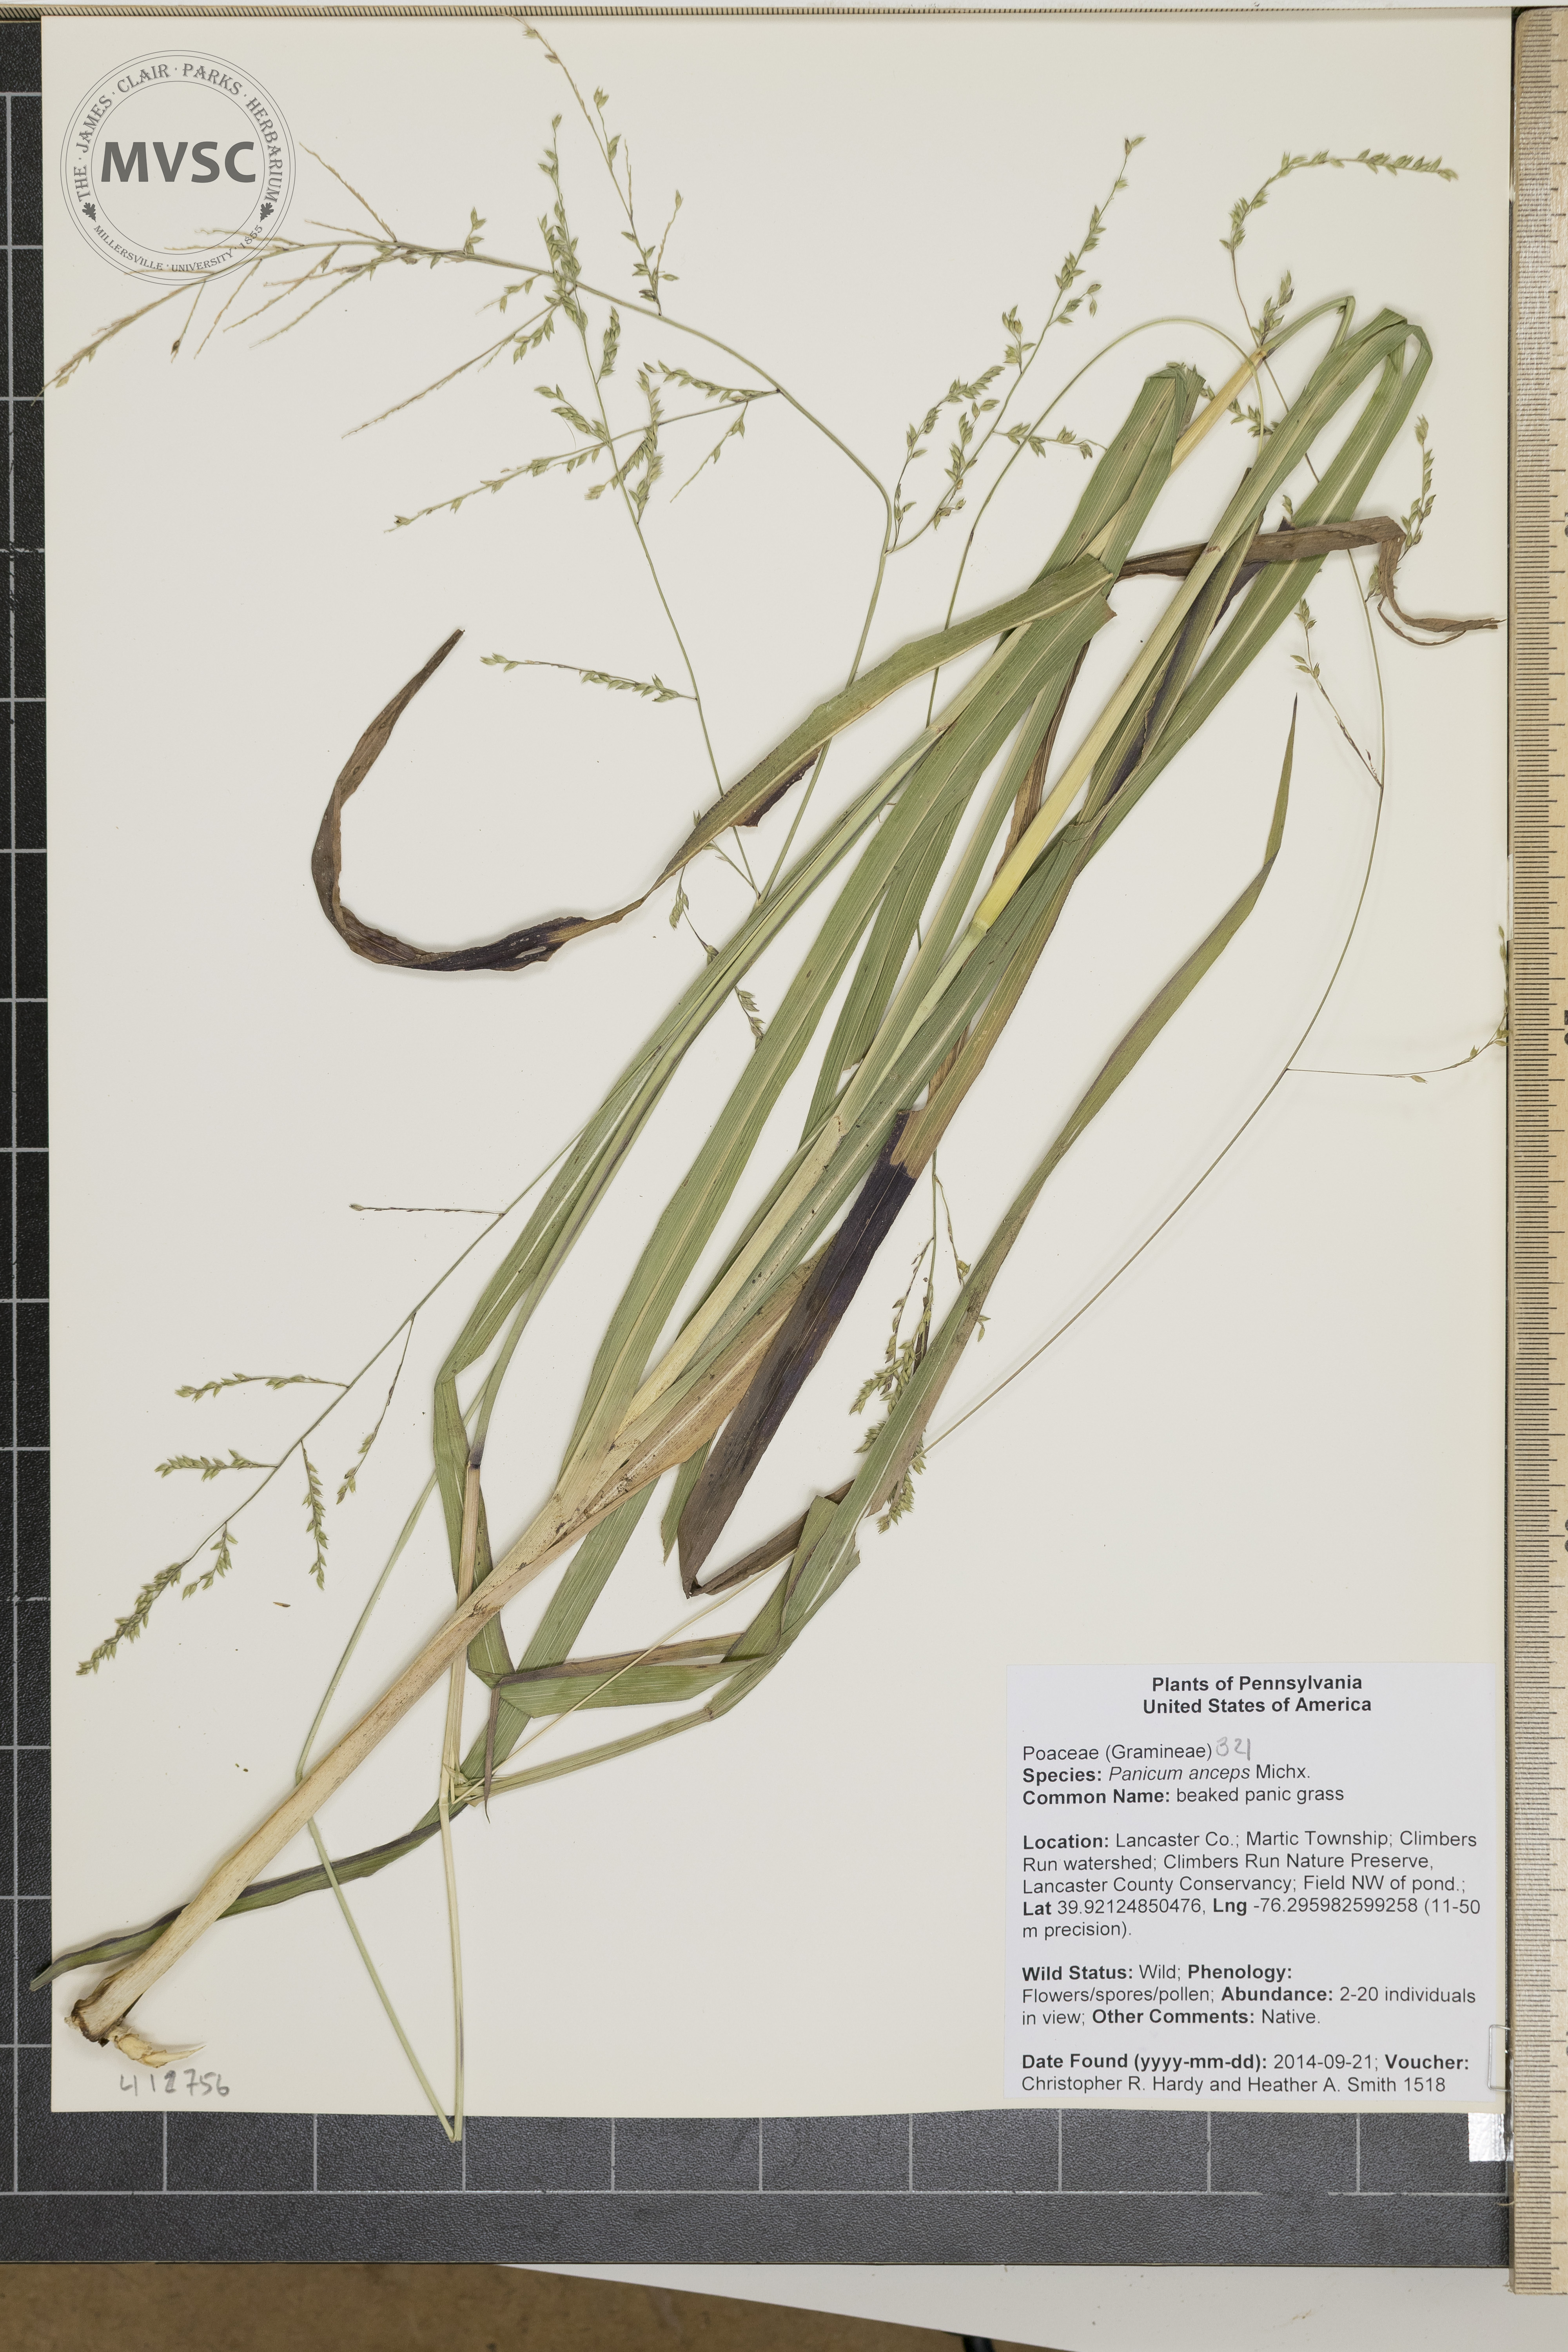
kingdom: Plantae
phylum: Tracheophyta
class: Liliopsida
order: Poales
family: Poaceae
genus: Coleataenia
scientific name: Coleataenia anceps
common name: beaked panic grass
